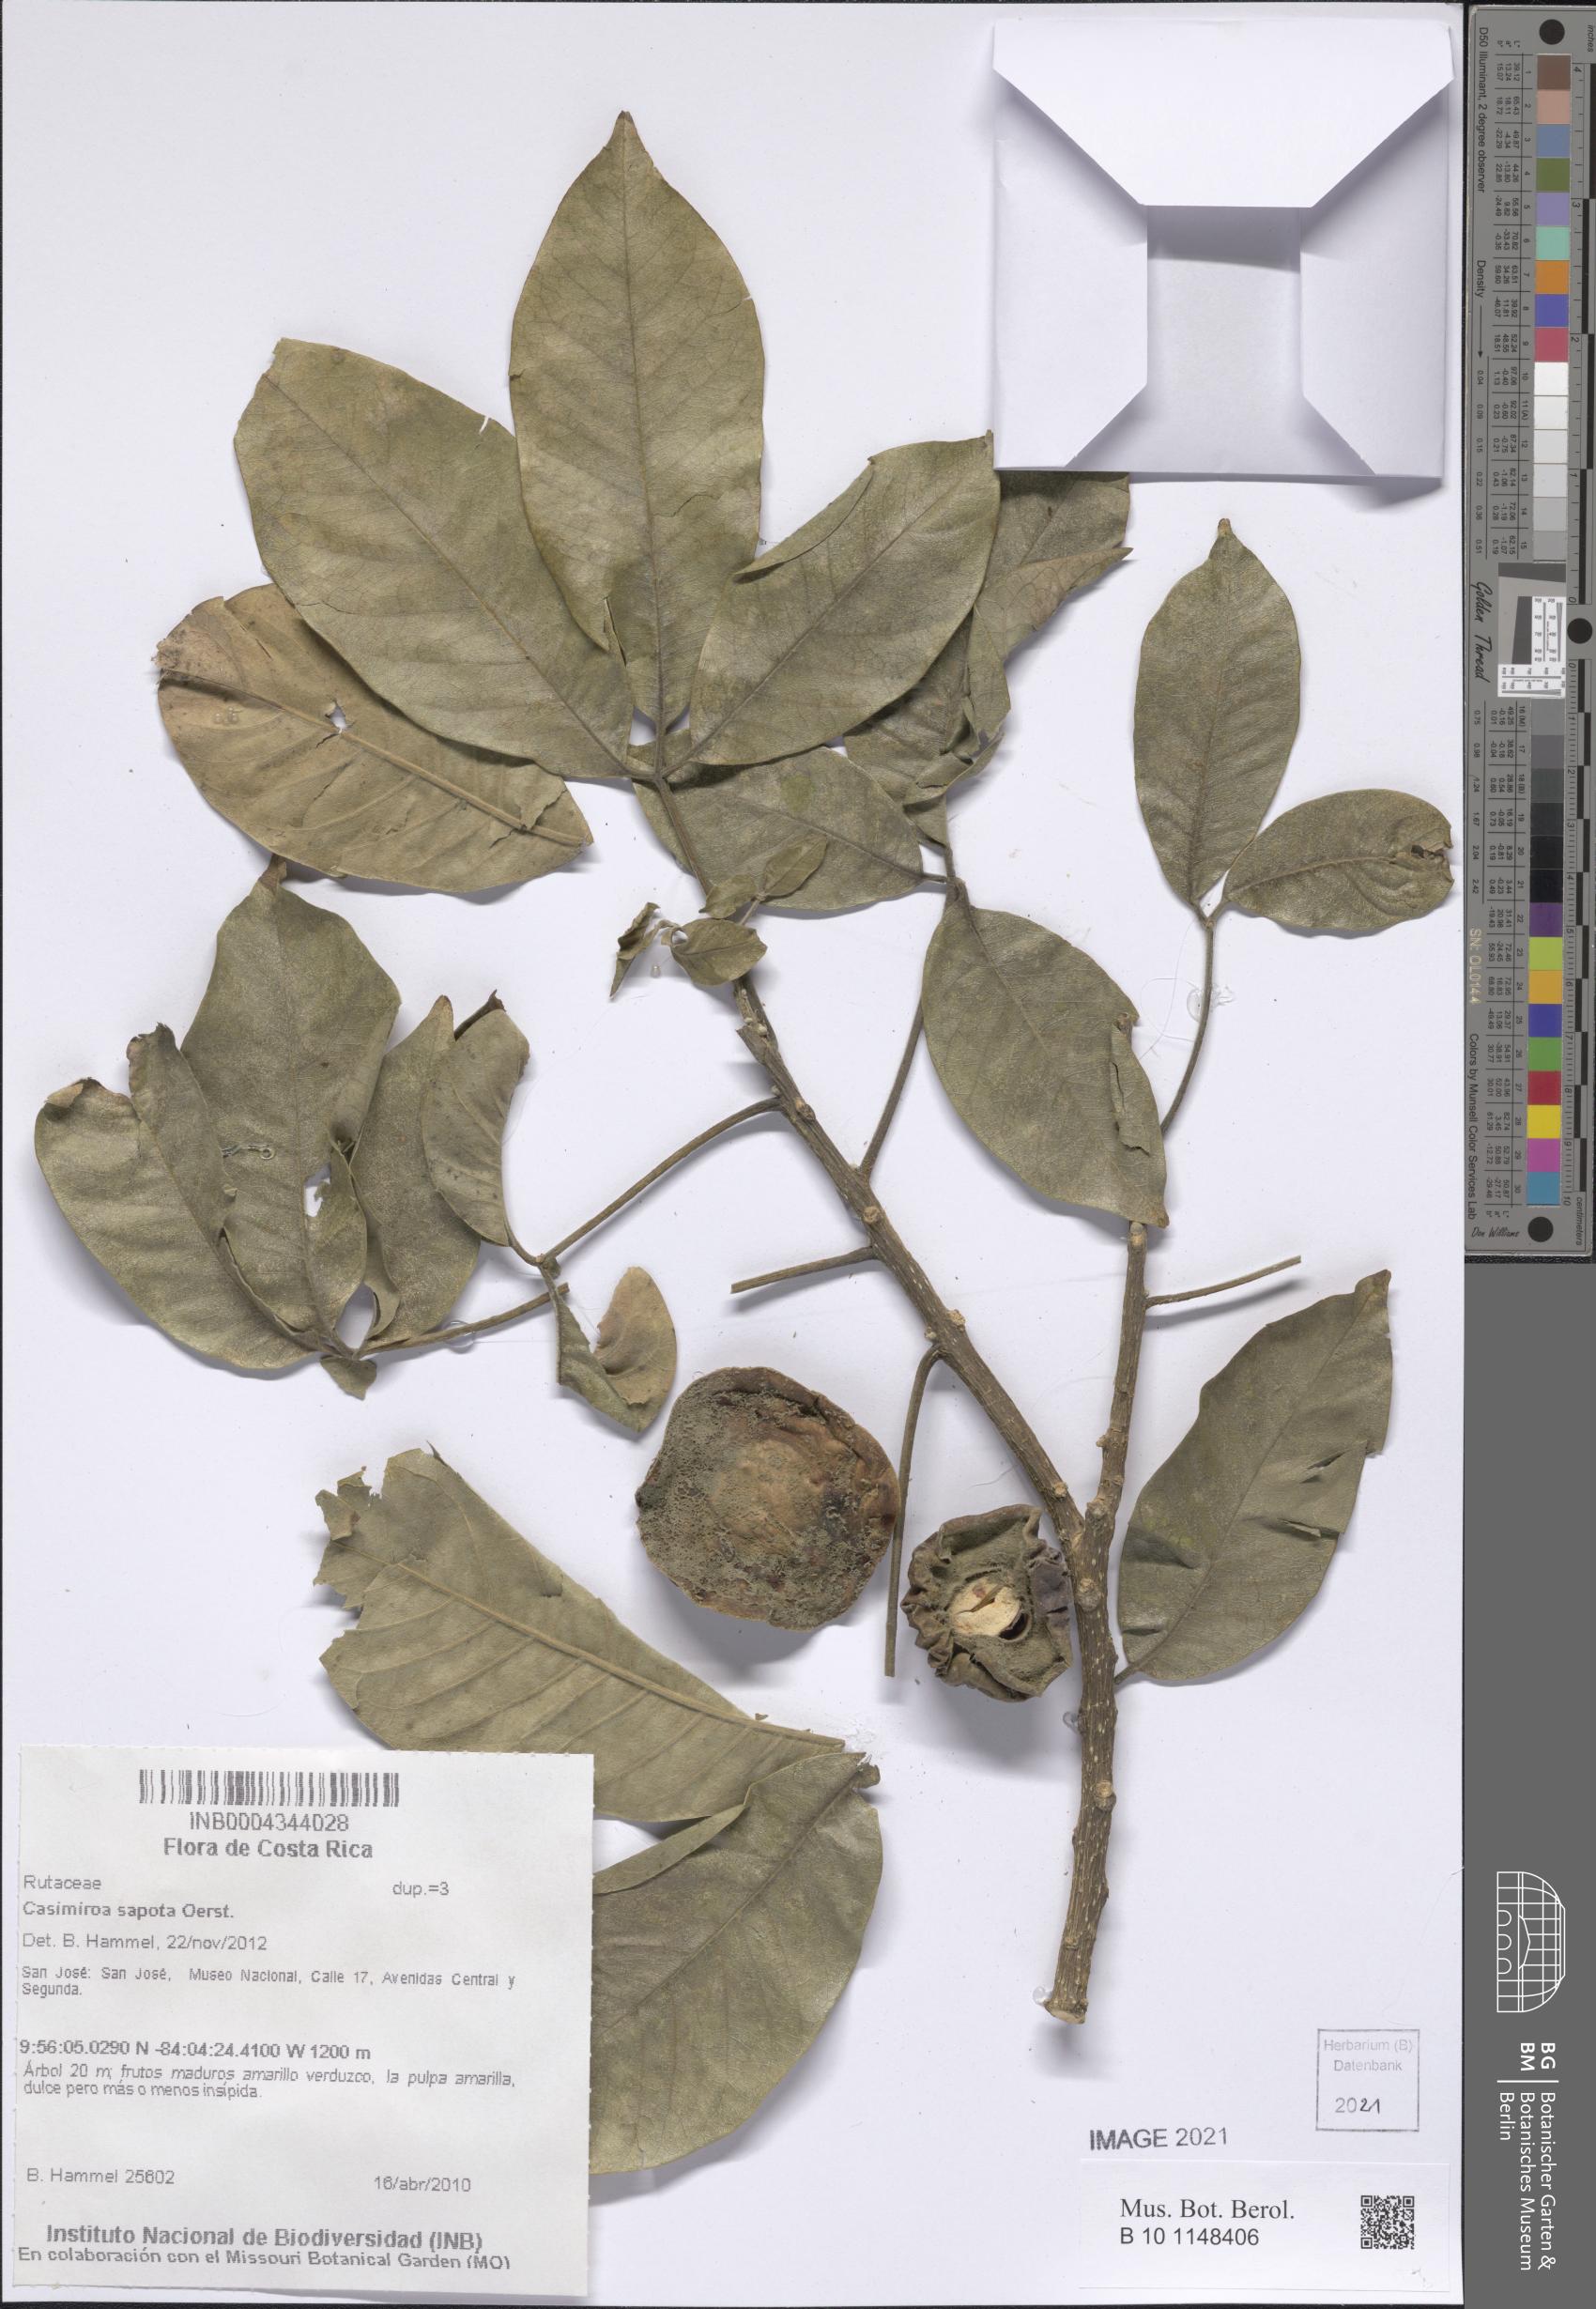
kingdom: Plantae
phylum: Tracheophyta
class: Magnoliopsida
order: Sapindales
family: Rutaceae
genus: Casimiroa
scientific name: Casimiroa sapota
